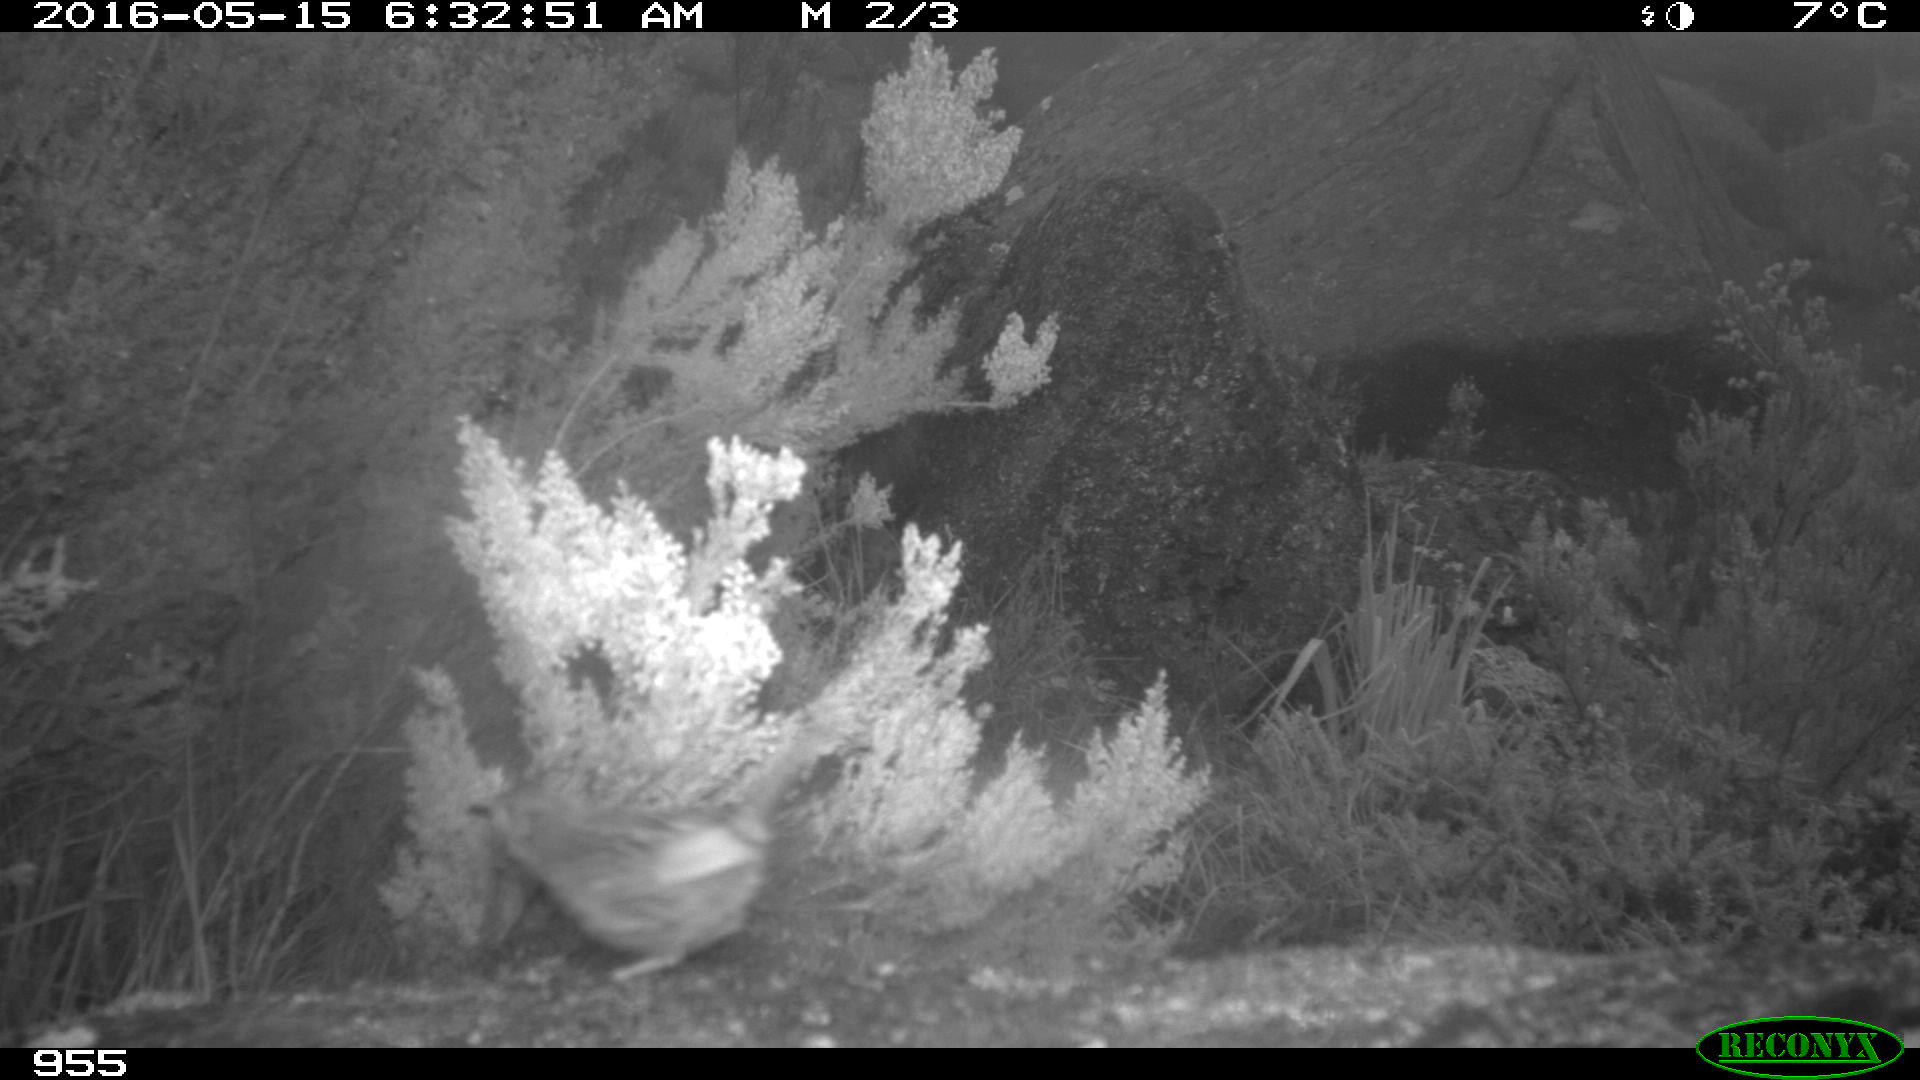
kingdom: Animalia
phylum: Chordata
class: Aves
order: Passeriformes
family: Prunellidae
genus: Prunella
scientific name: Prunella modularis
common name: Dunnock
